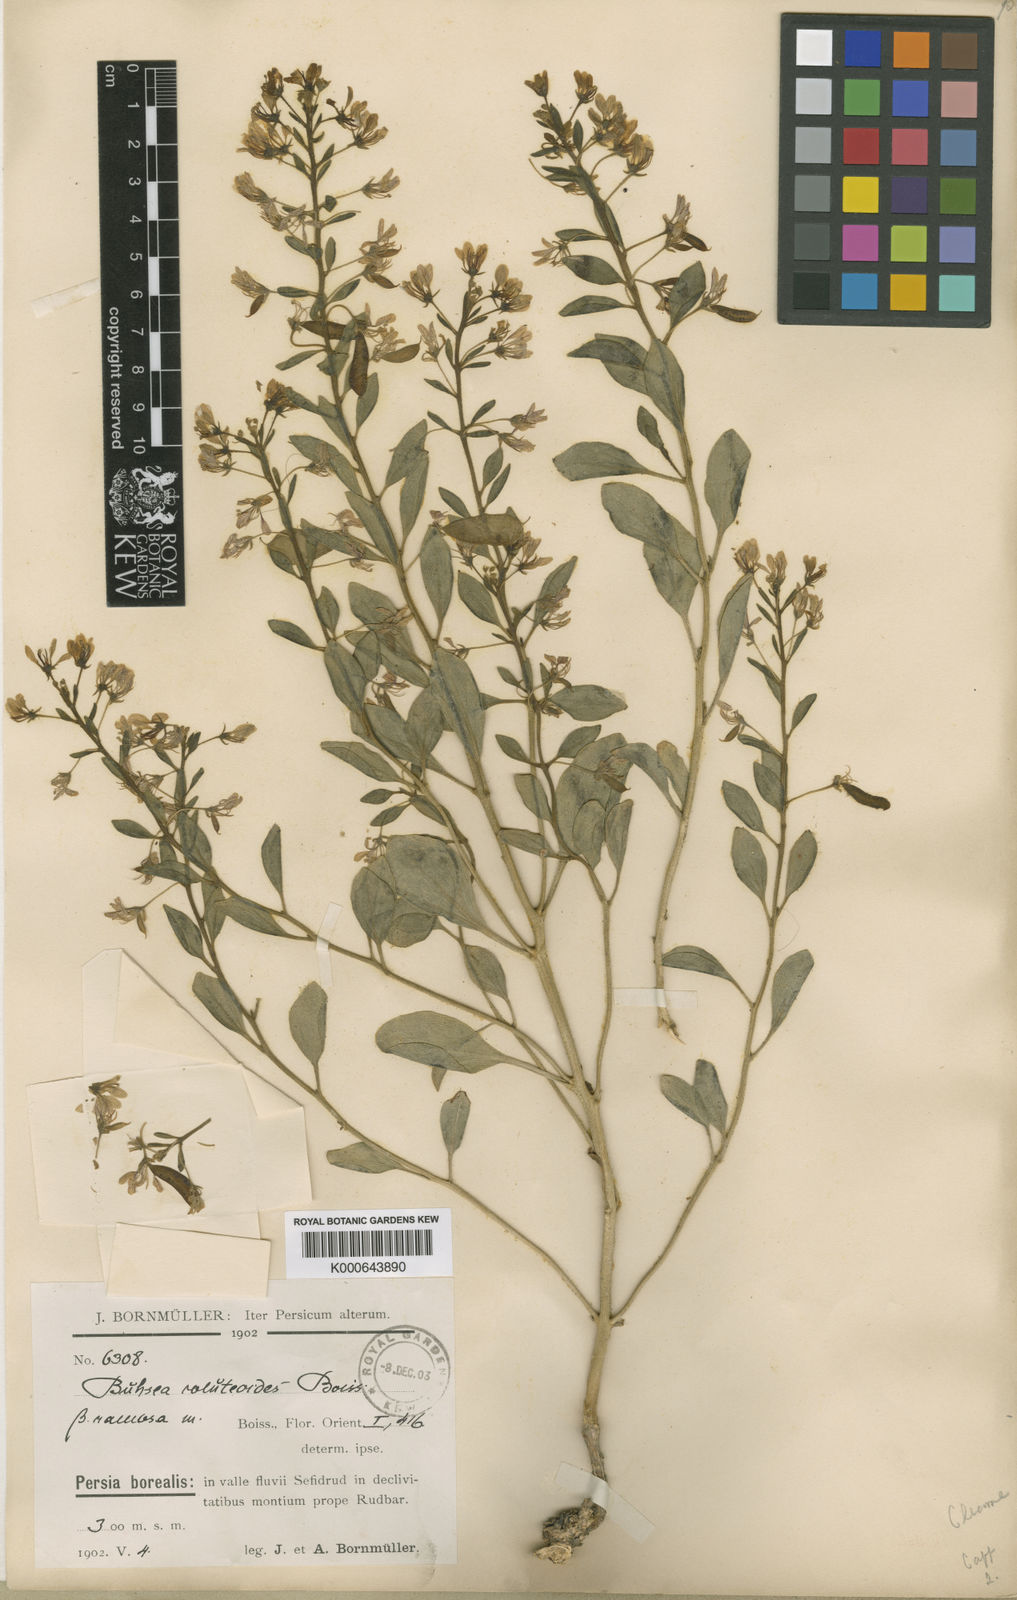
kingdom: Plantae
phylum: Tracheophyta
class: Magnoliopsida
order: Brassicales
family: Cleomaceae
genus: Cleome
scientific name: Cleome coluteoides
